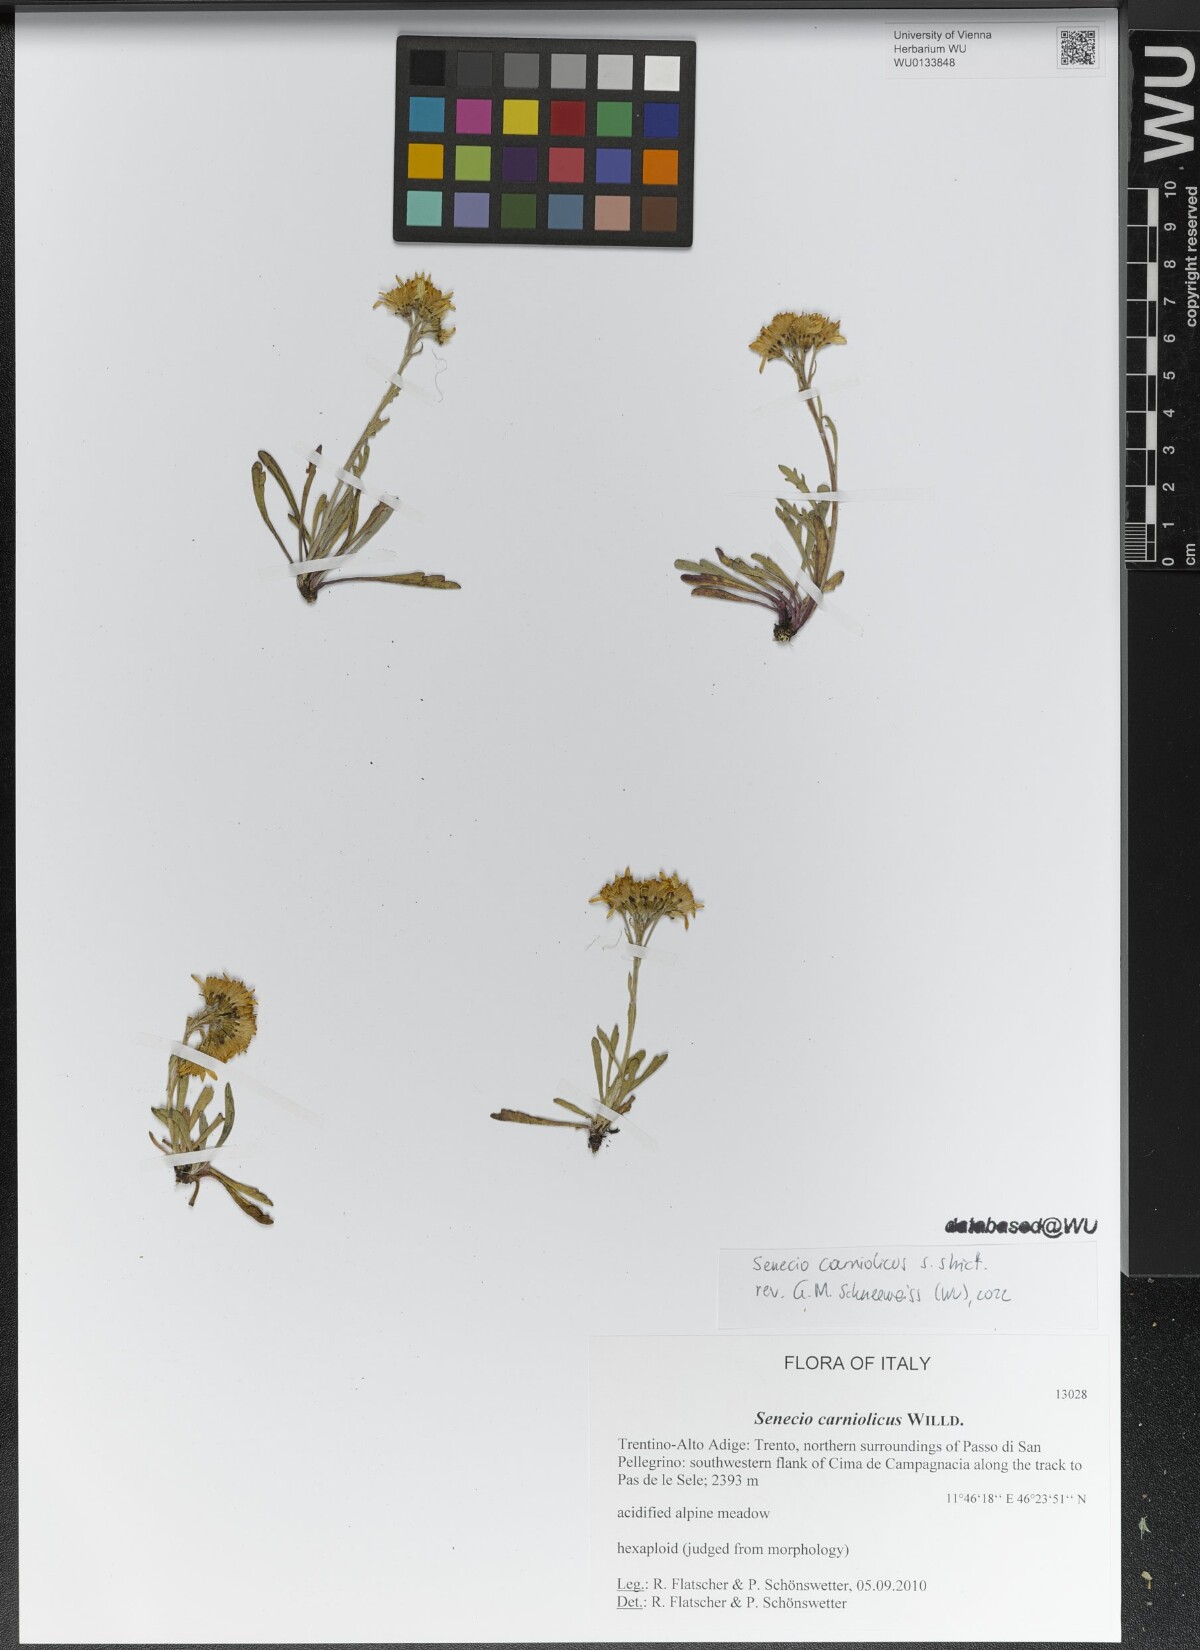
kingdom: Plantae
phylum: Tracheophyta
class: Magnoliopsida
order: Asterales
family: Asteraceae
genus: Jacobaea
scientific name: Jacobaea carniolica
